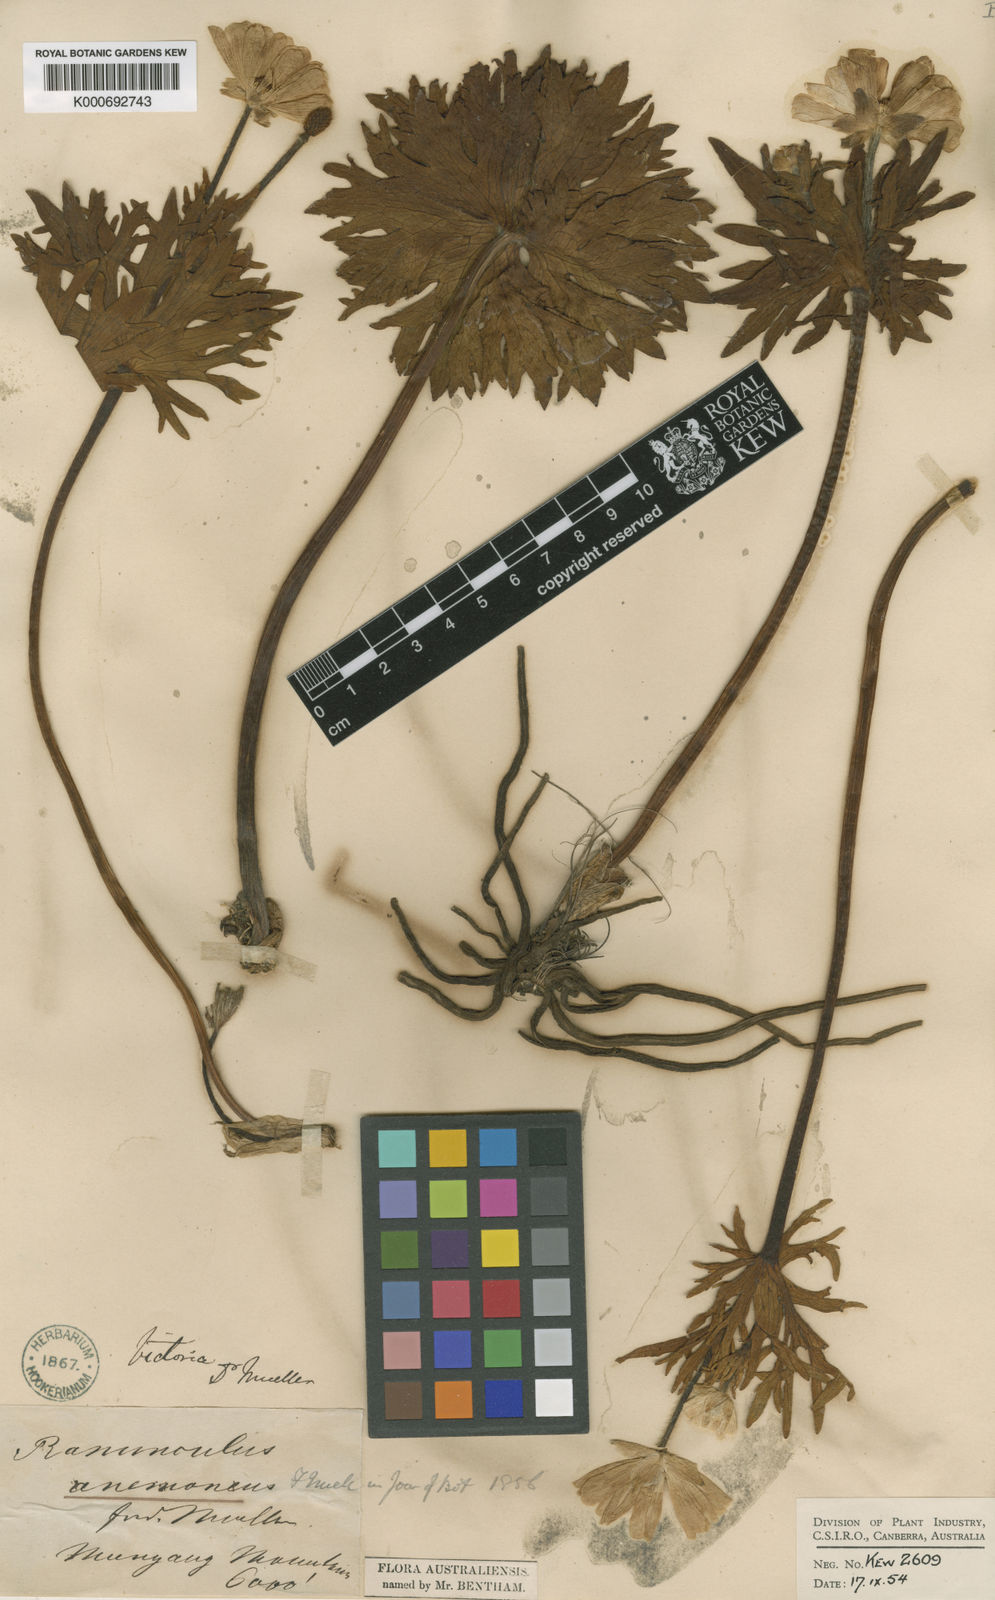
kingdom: Plantae
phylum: Tracheophyta
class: Magnoliopsida
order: Ranunculales
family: Ranunculaceae
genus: Ranunculus
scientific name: Ranunculus anemoneus
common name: Anemone buttercup
